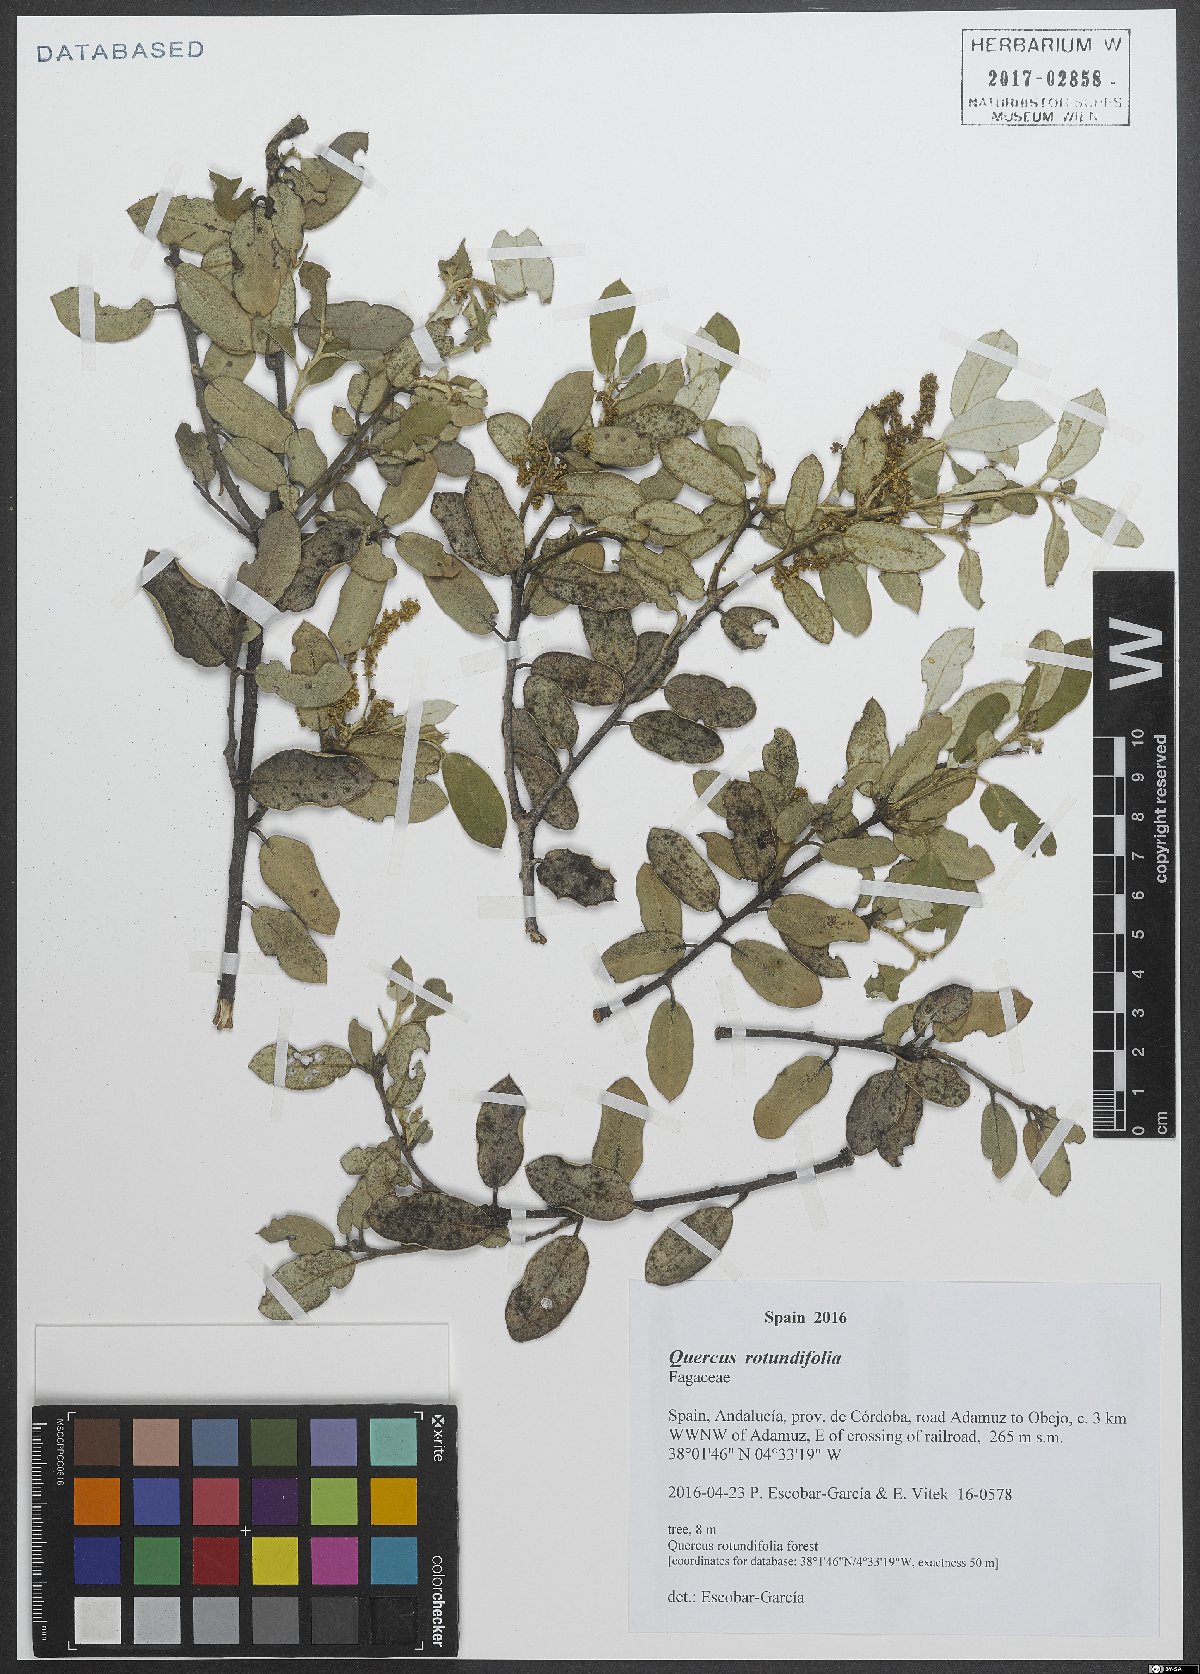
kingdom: Plantae
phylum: Tracheophyta
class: Magnoliopsida
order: Fagales
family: Fagaceae
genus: Quercus
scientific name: Quercus rotundifolia
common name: Holm oak
